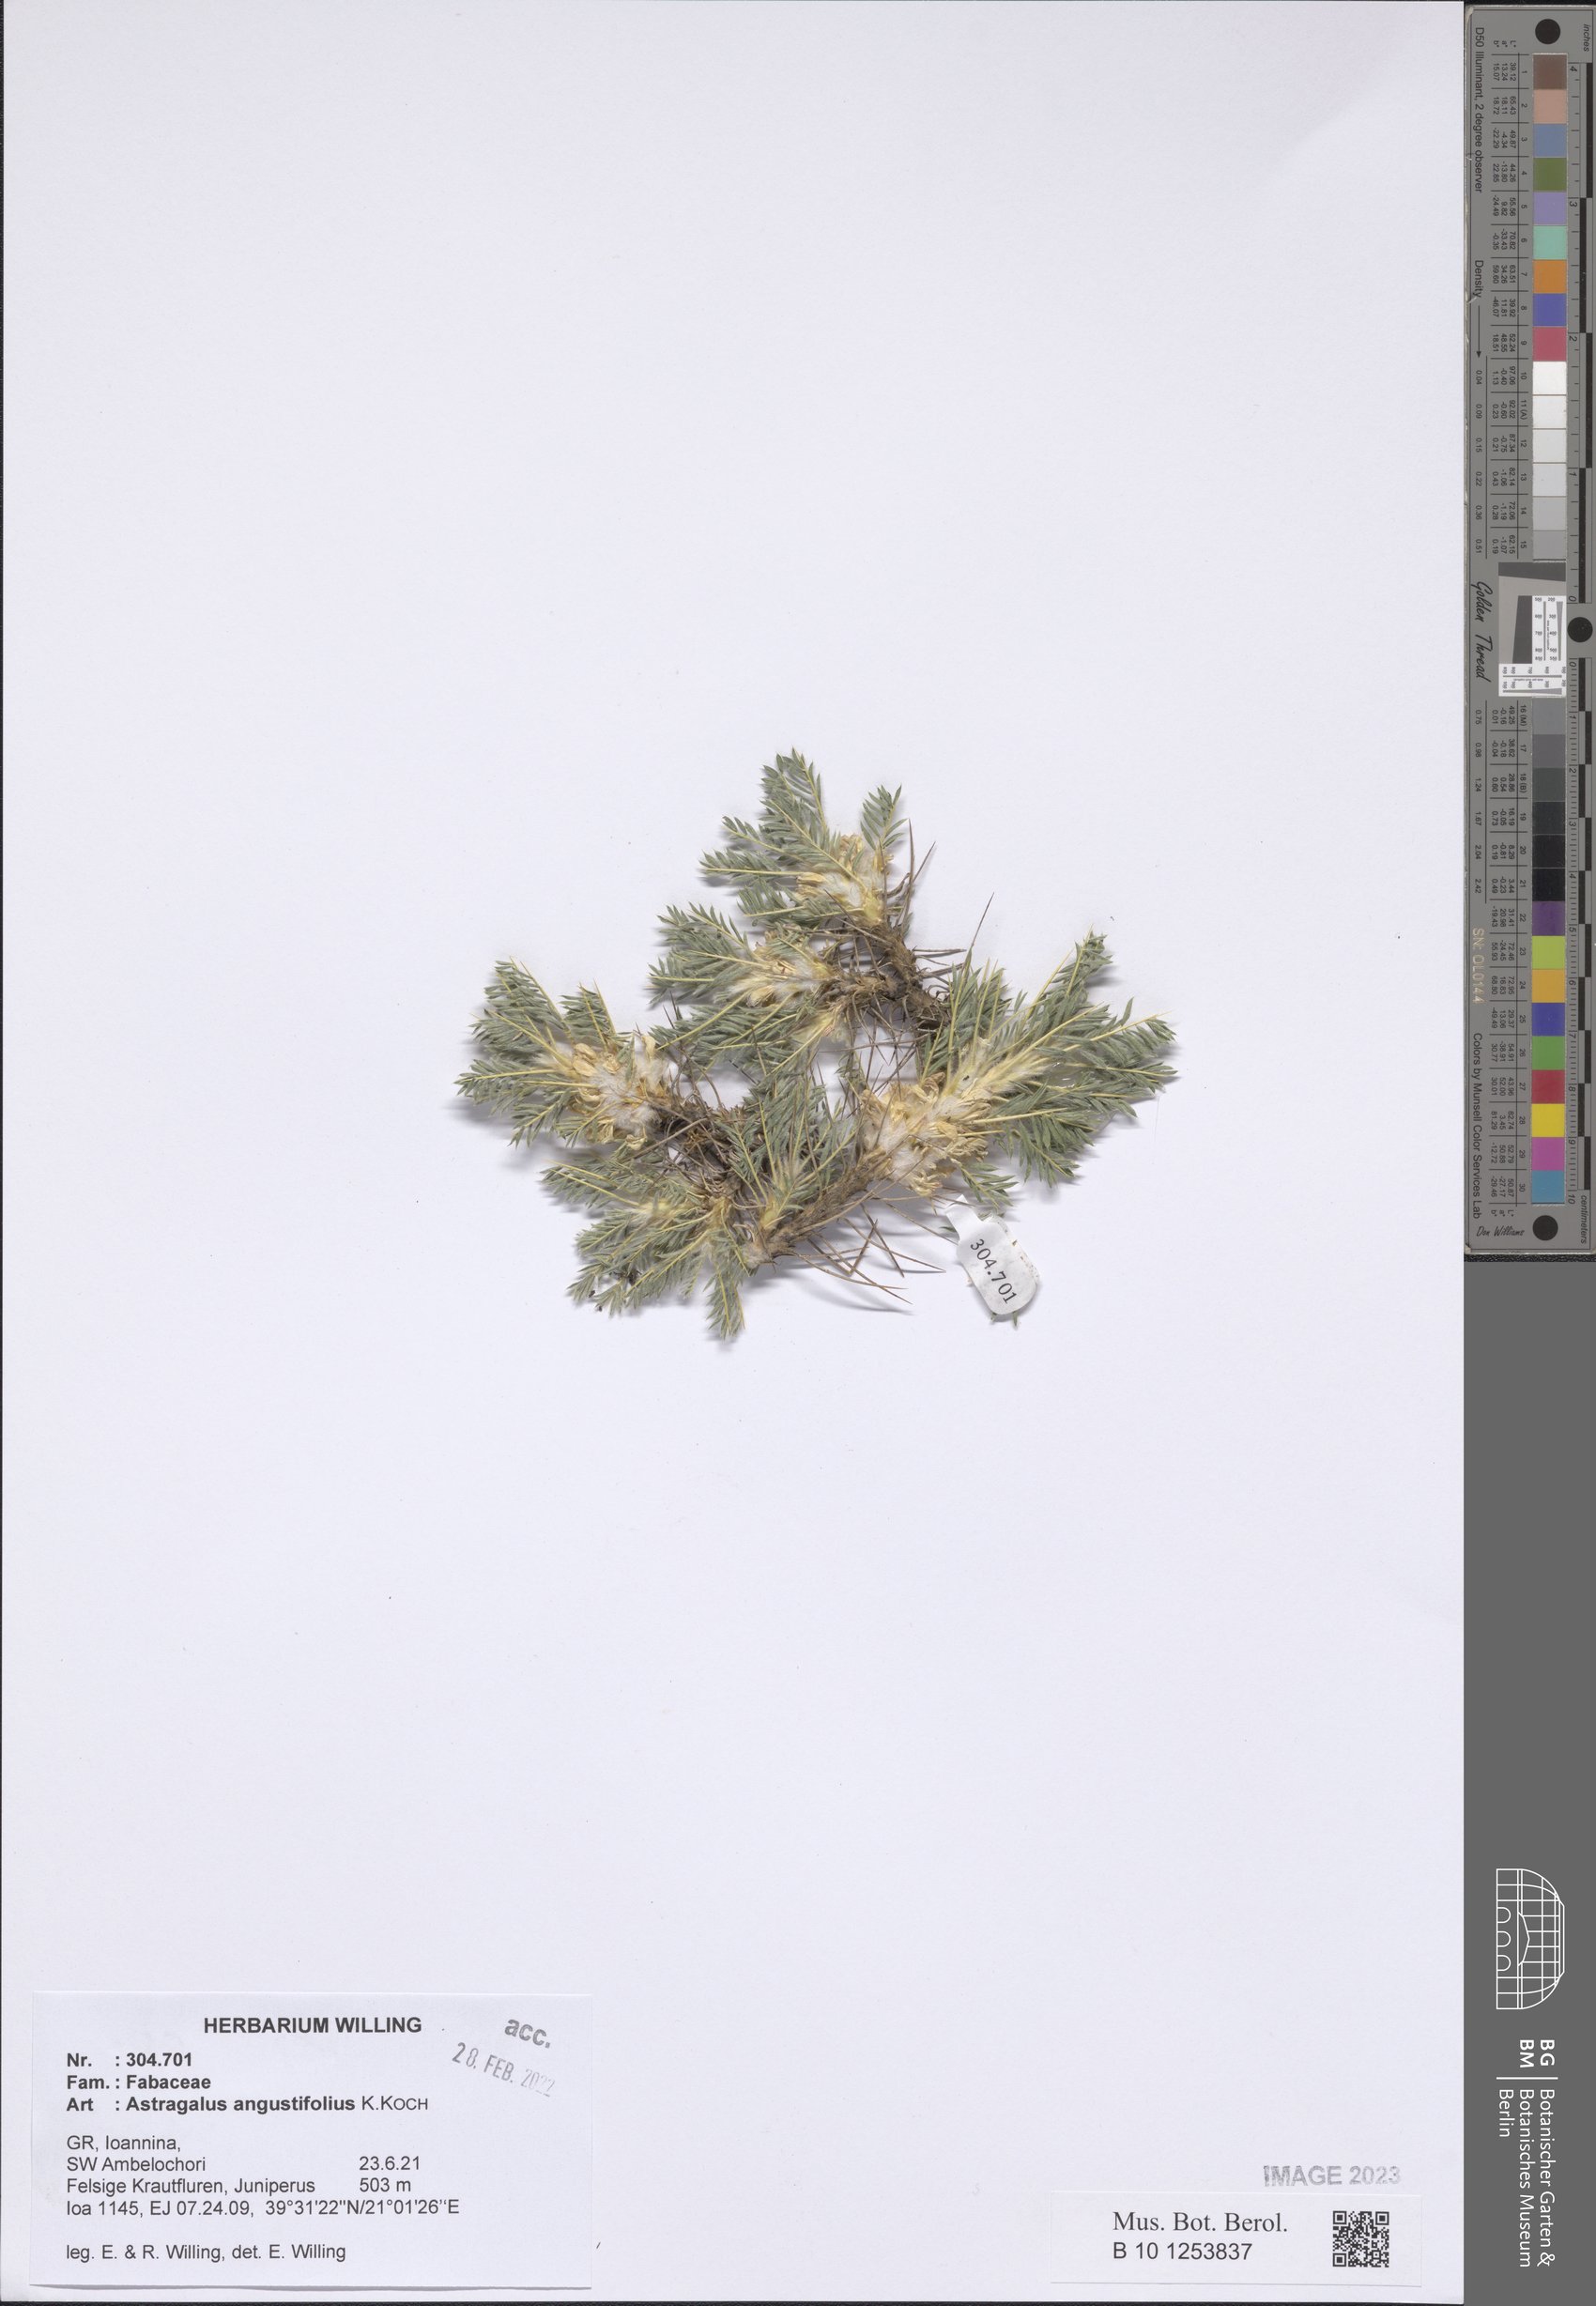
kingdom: Plantae
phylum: Tracheophyta
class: Magnoliopsida
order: Fabales
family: Fabaceae
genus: Astragalus
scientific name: Astragalus angustifolius
